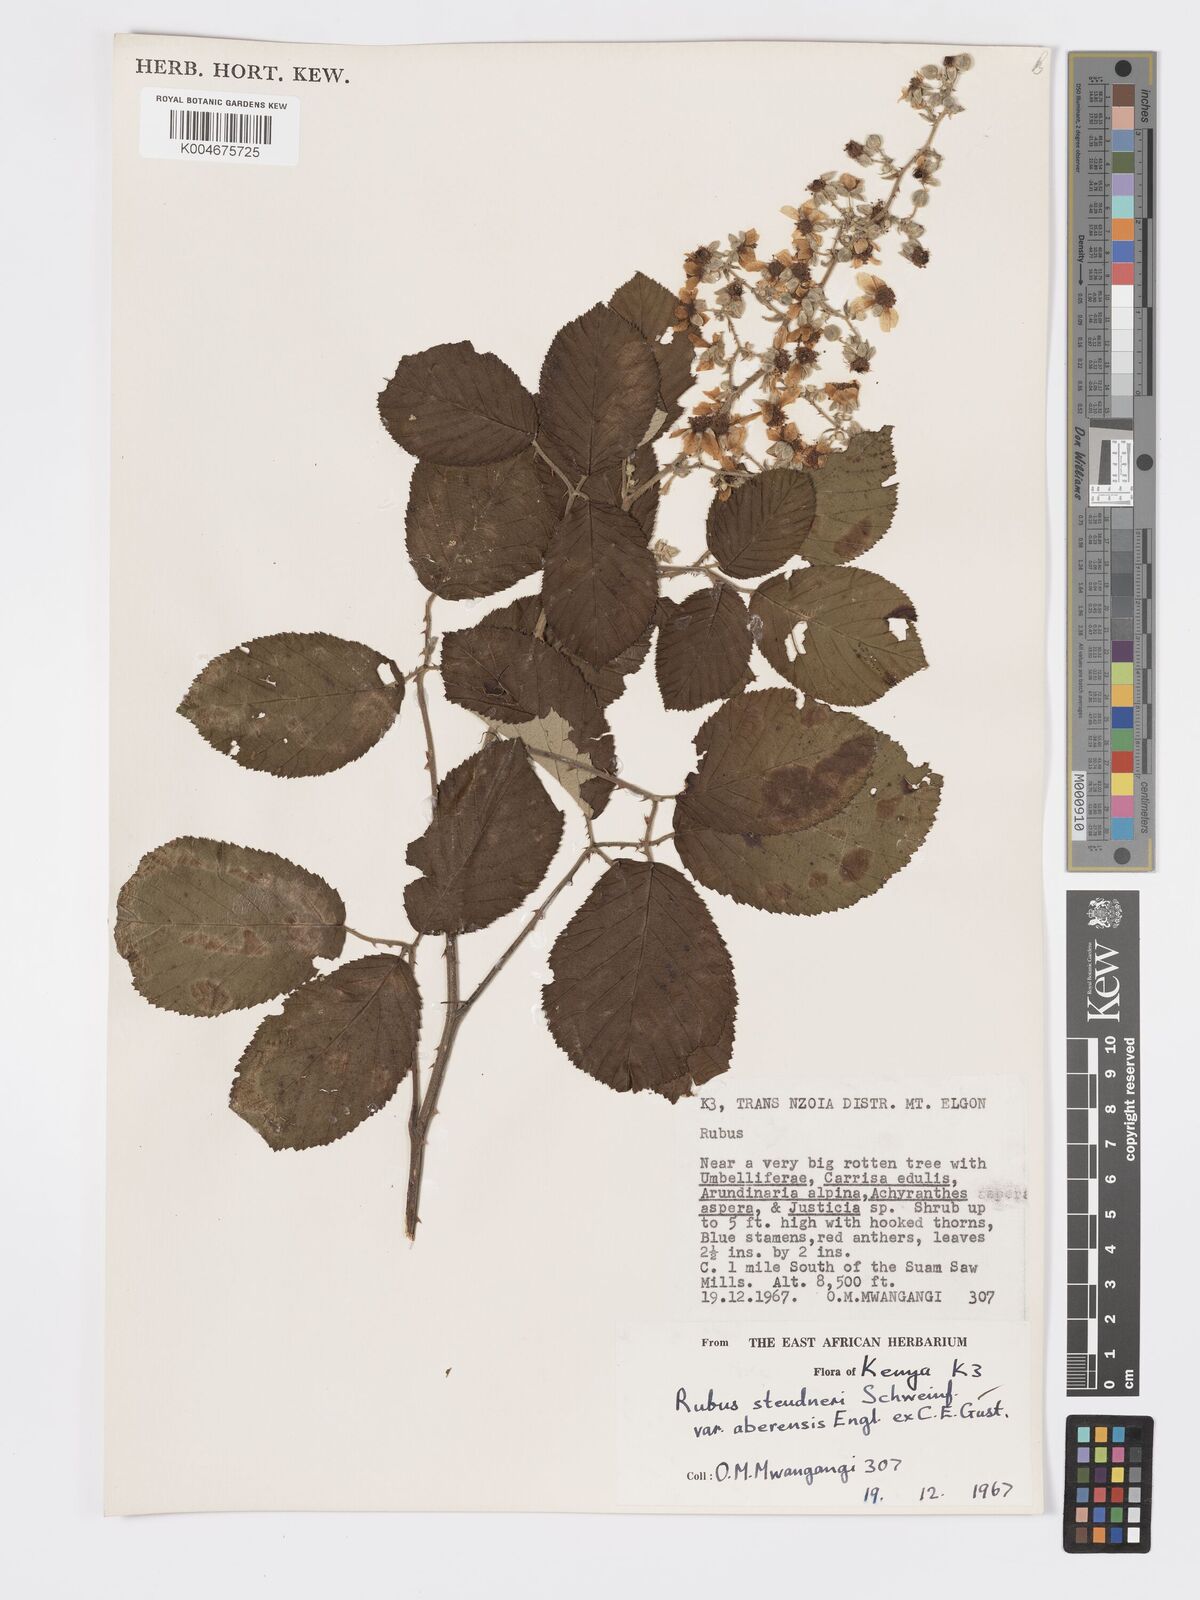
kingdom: Plantae
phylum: Tracheophyta
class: Magnoliopsida
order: Rosales
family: Rosaceae
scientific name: Rosaceae
